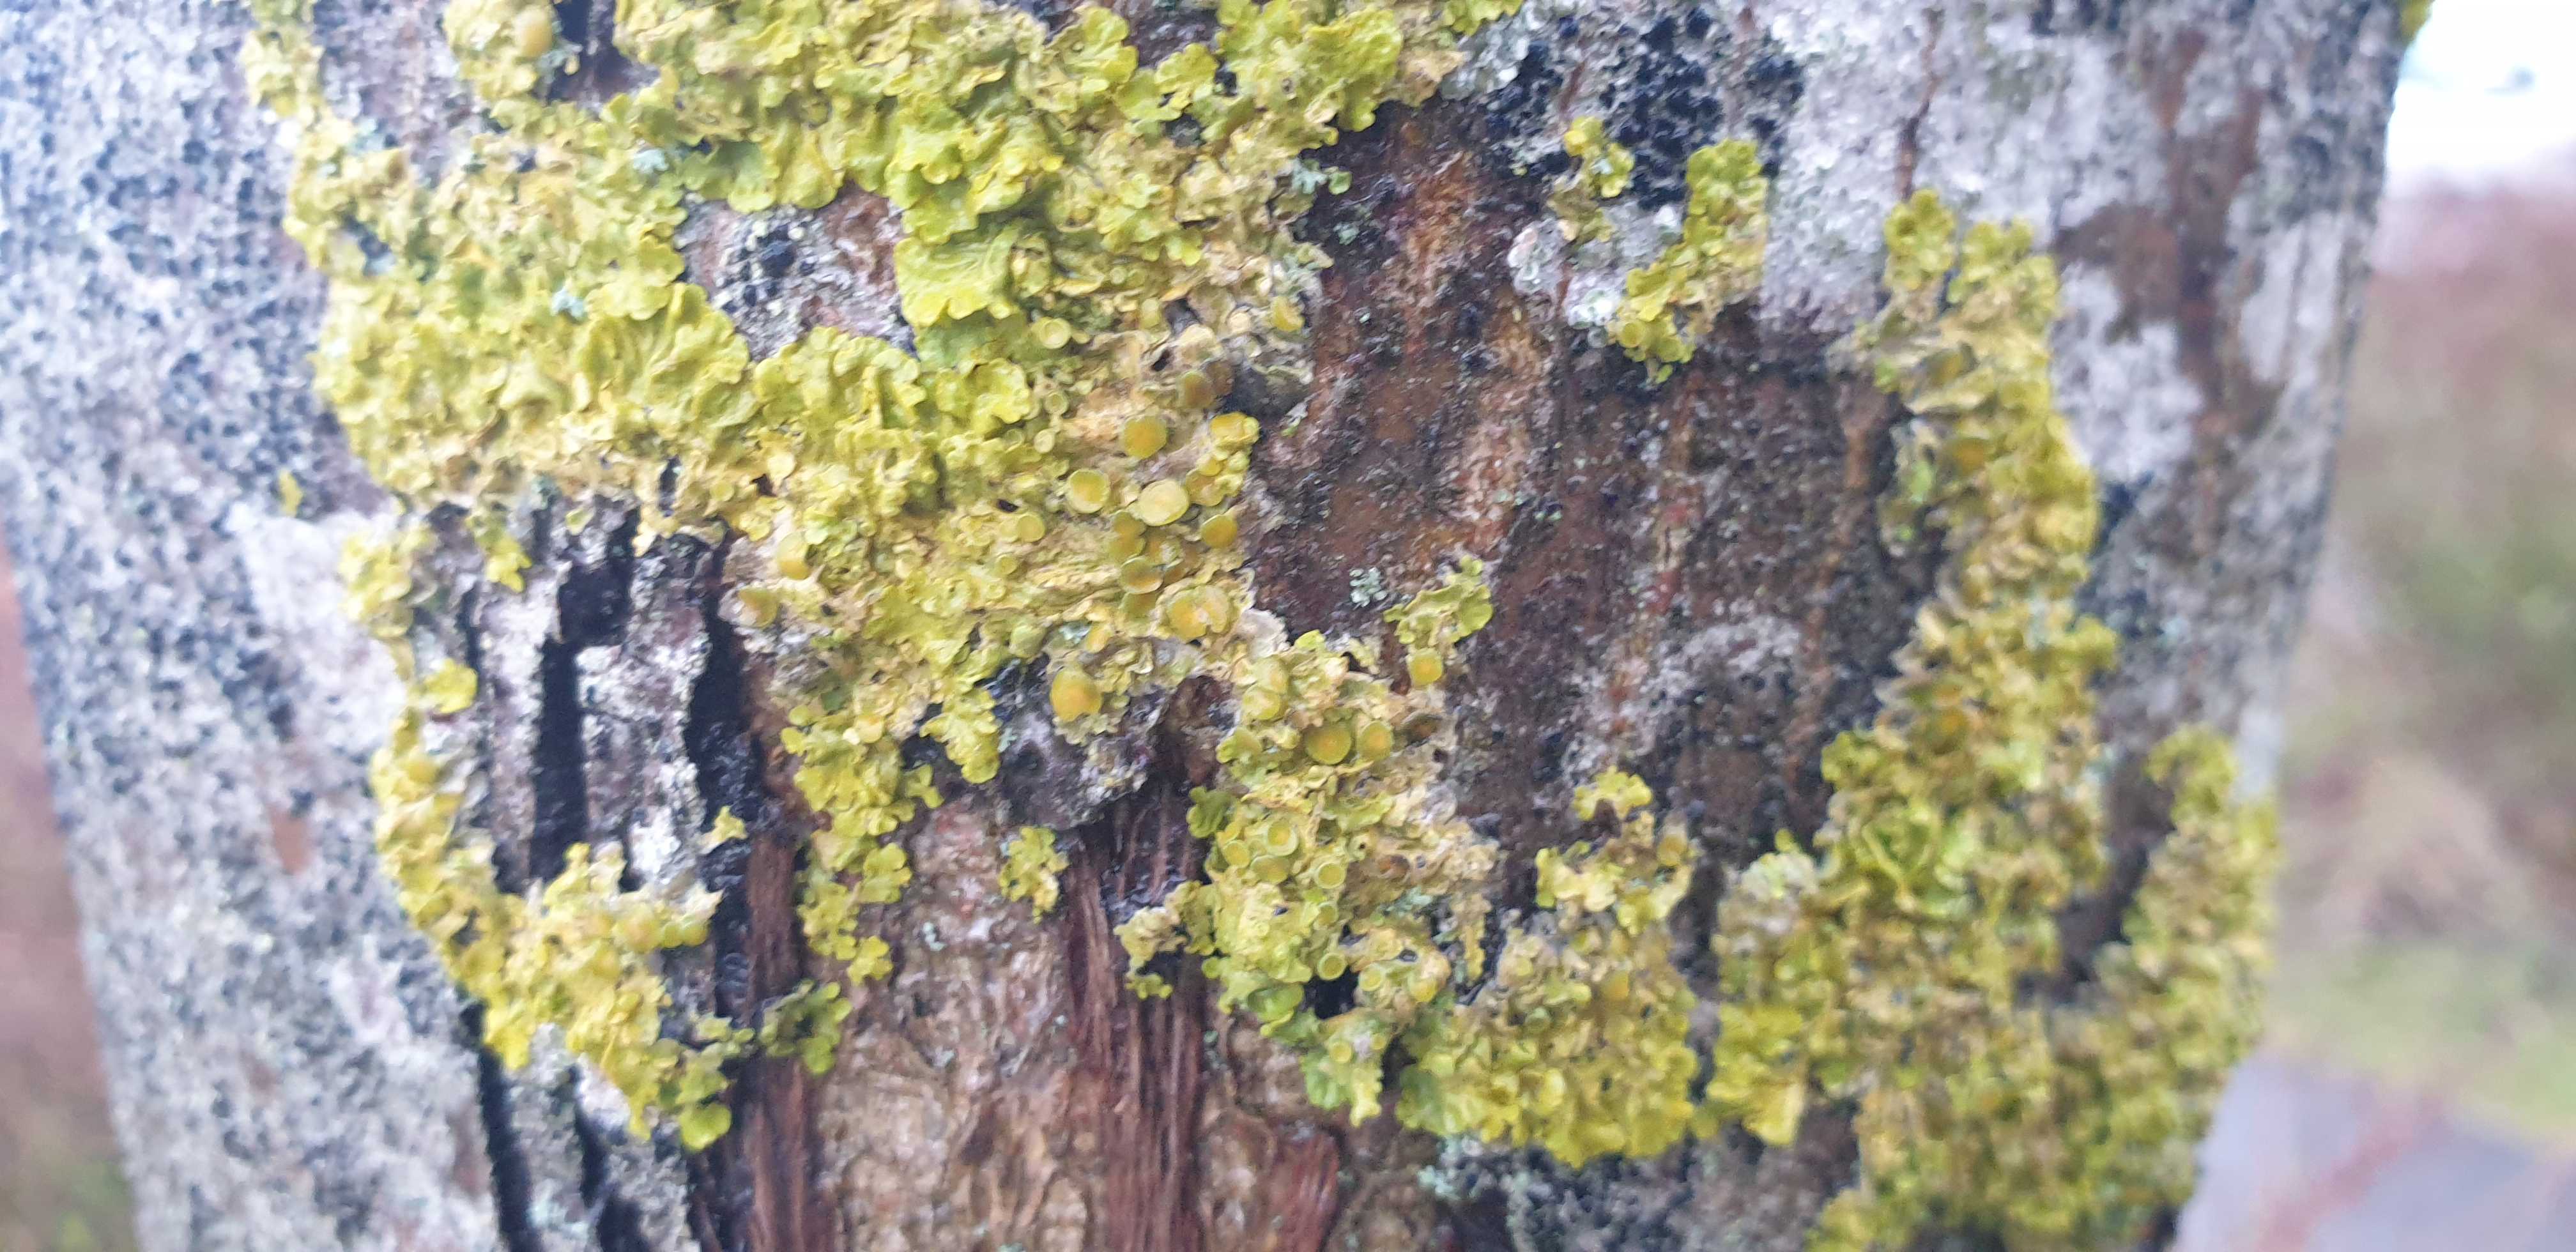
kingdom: Fungi
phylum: Ascomycota
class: Lecanoromycetes
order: Teloschistales
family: Teloschistaceae
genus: Xanthoria
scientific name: Xanthoria parietina
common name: almindelig væggelav
